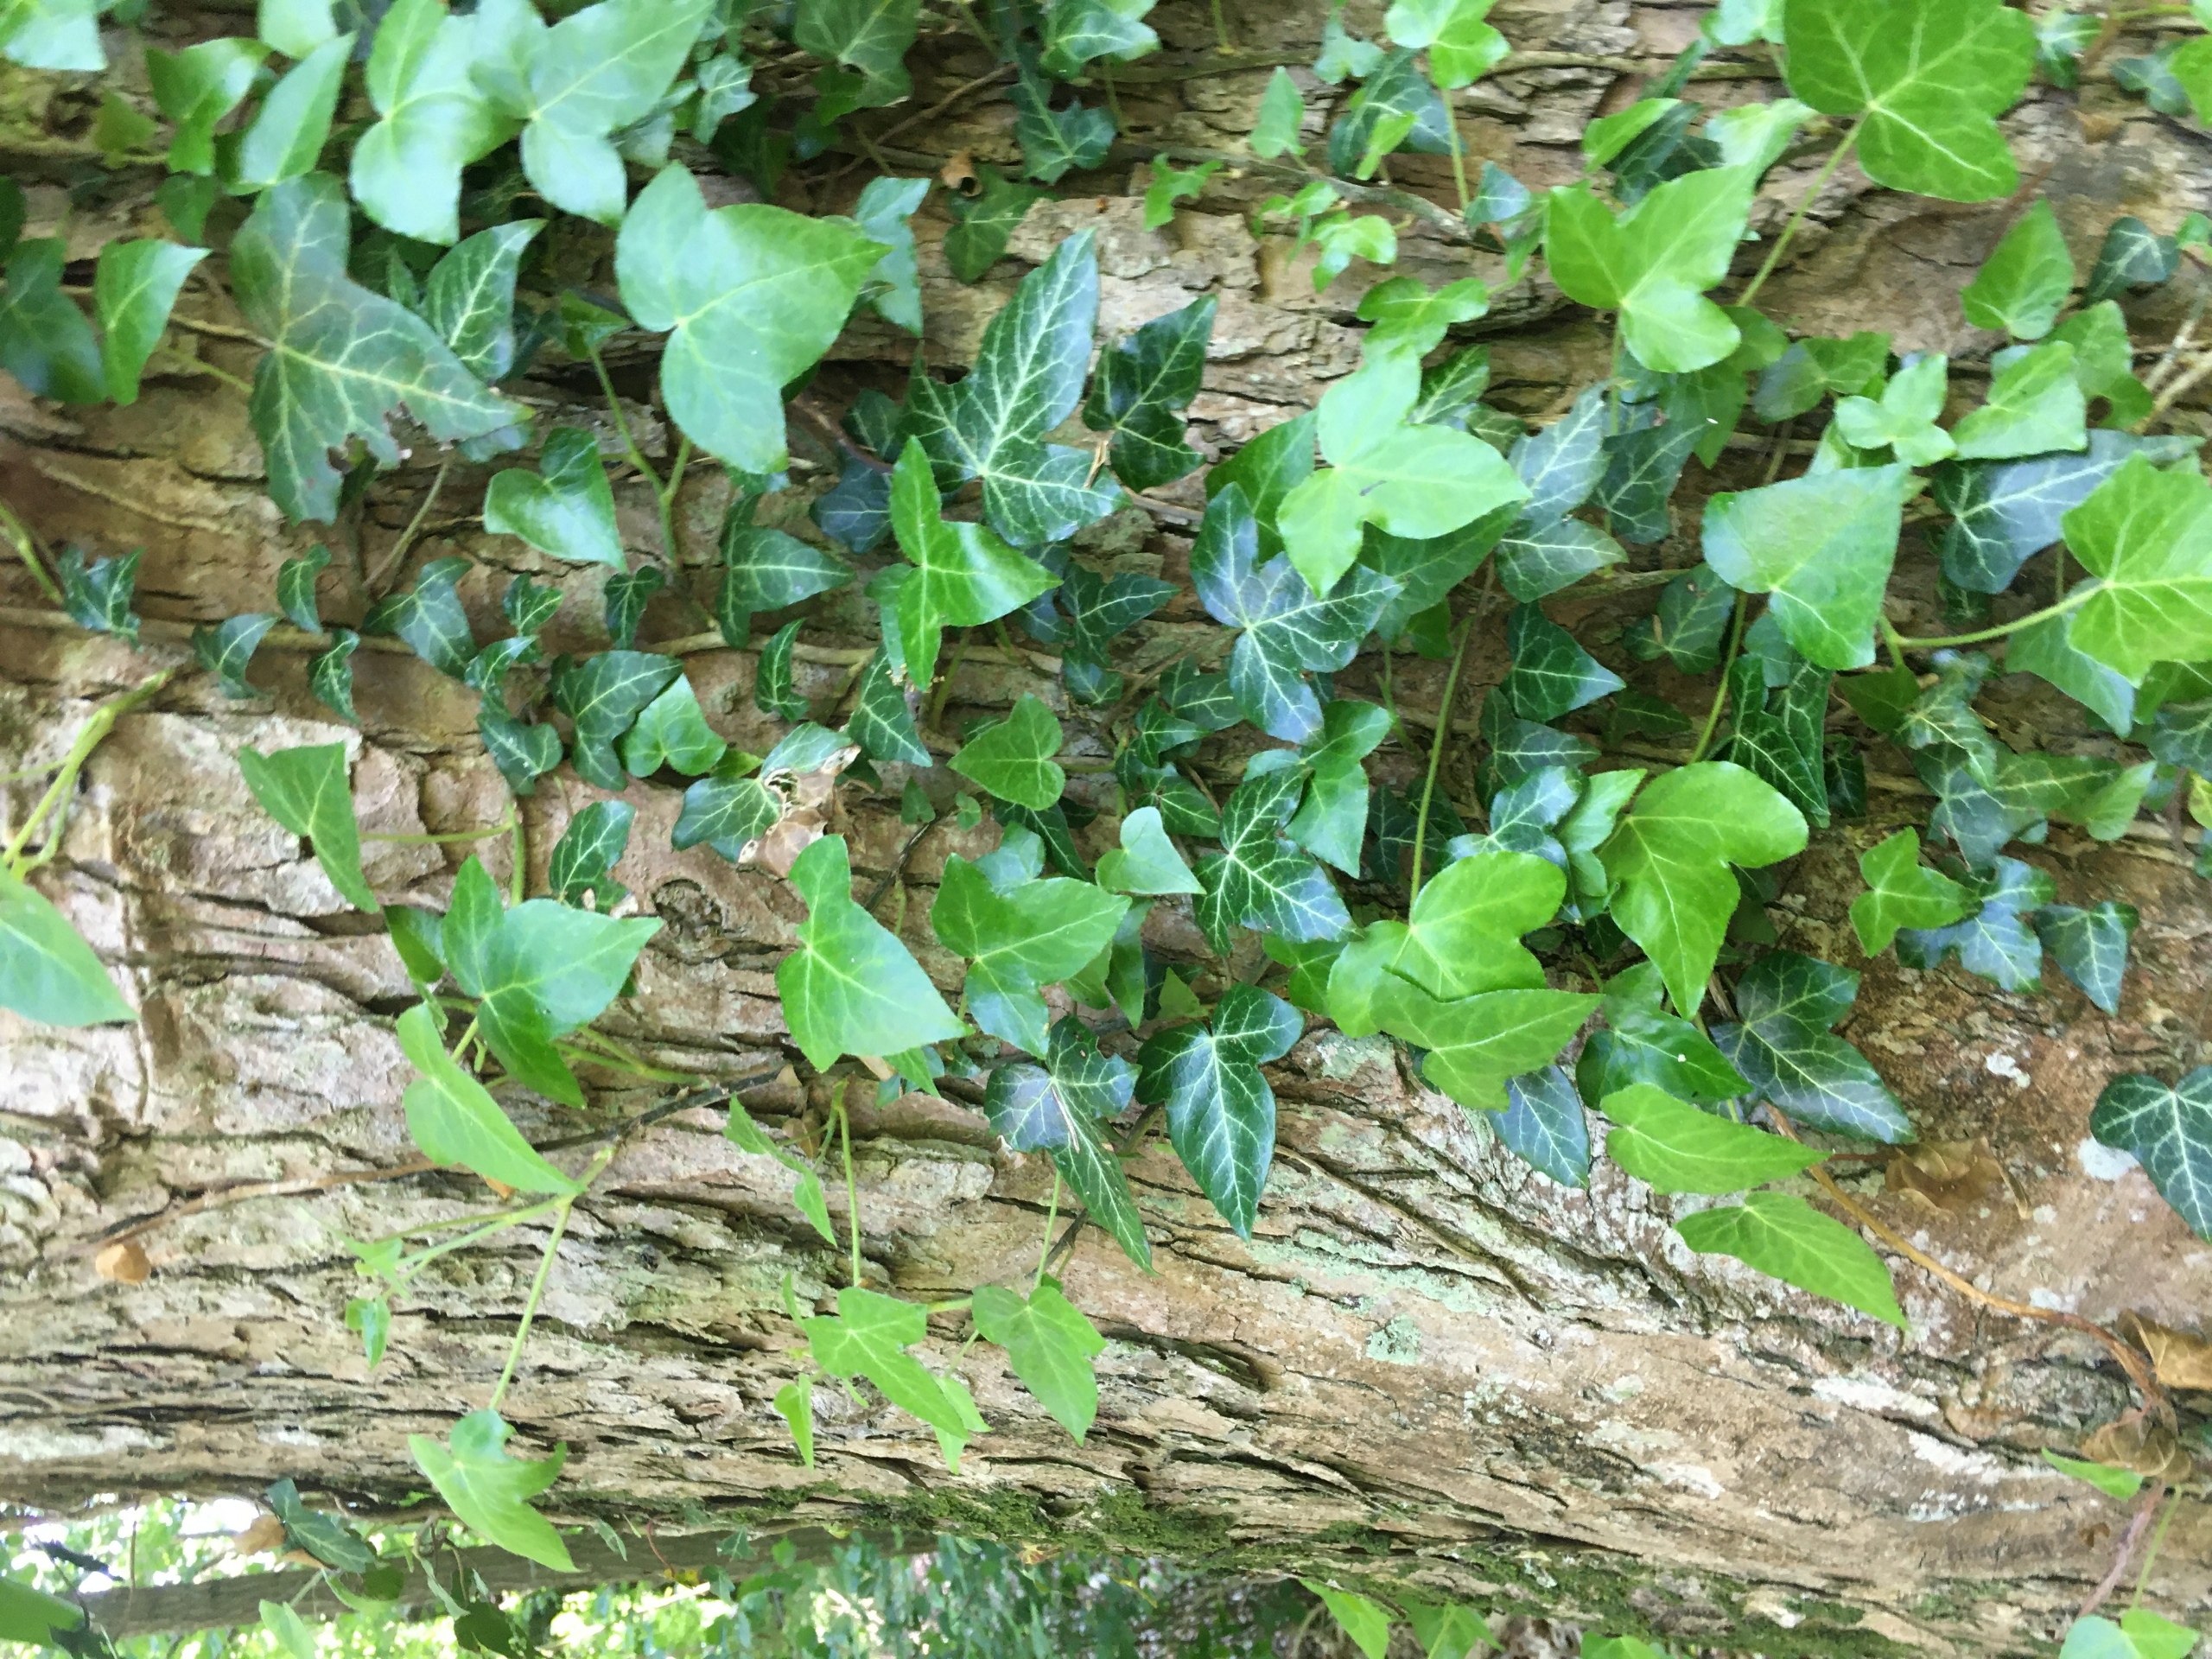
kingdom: Plantae
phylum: Tracheophyta
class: Magnoliopsida
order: Apiales
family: Araliaceae
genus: Hedera
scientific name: Hedera helix
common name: Vedbend
